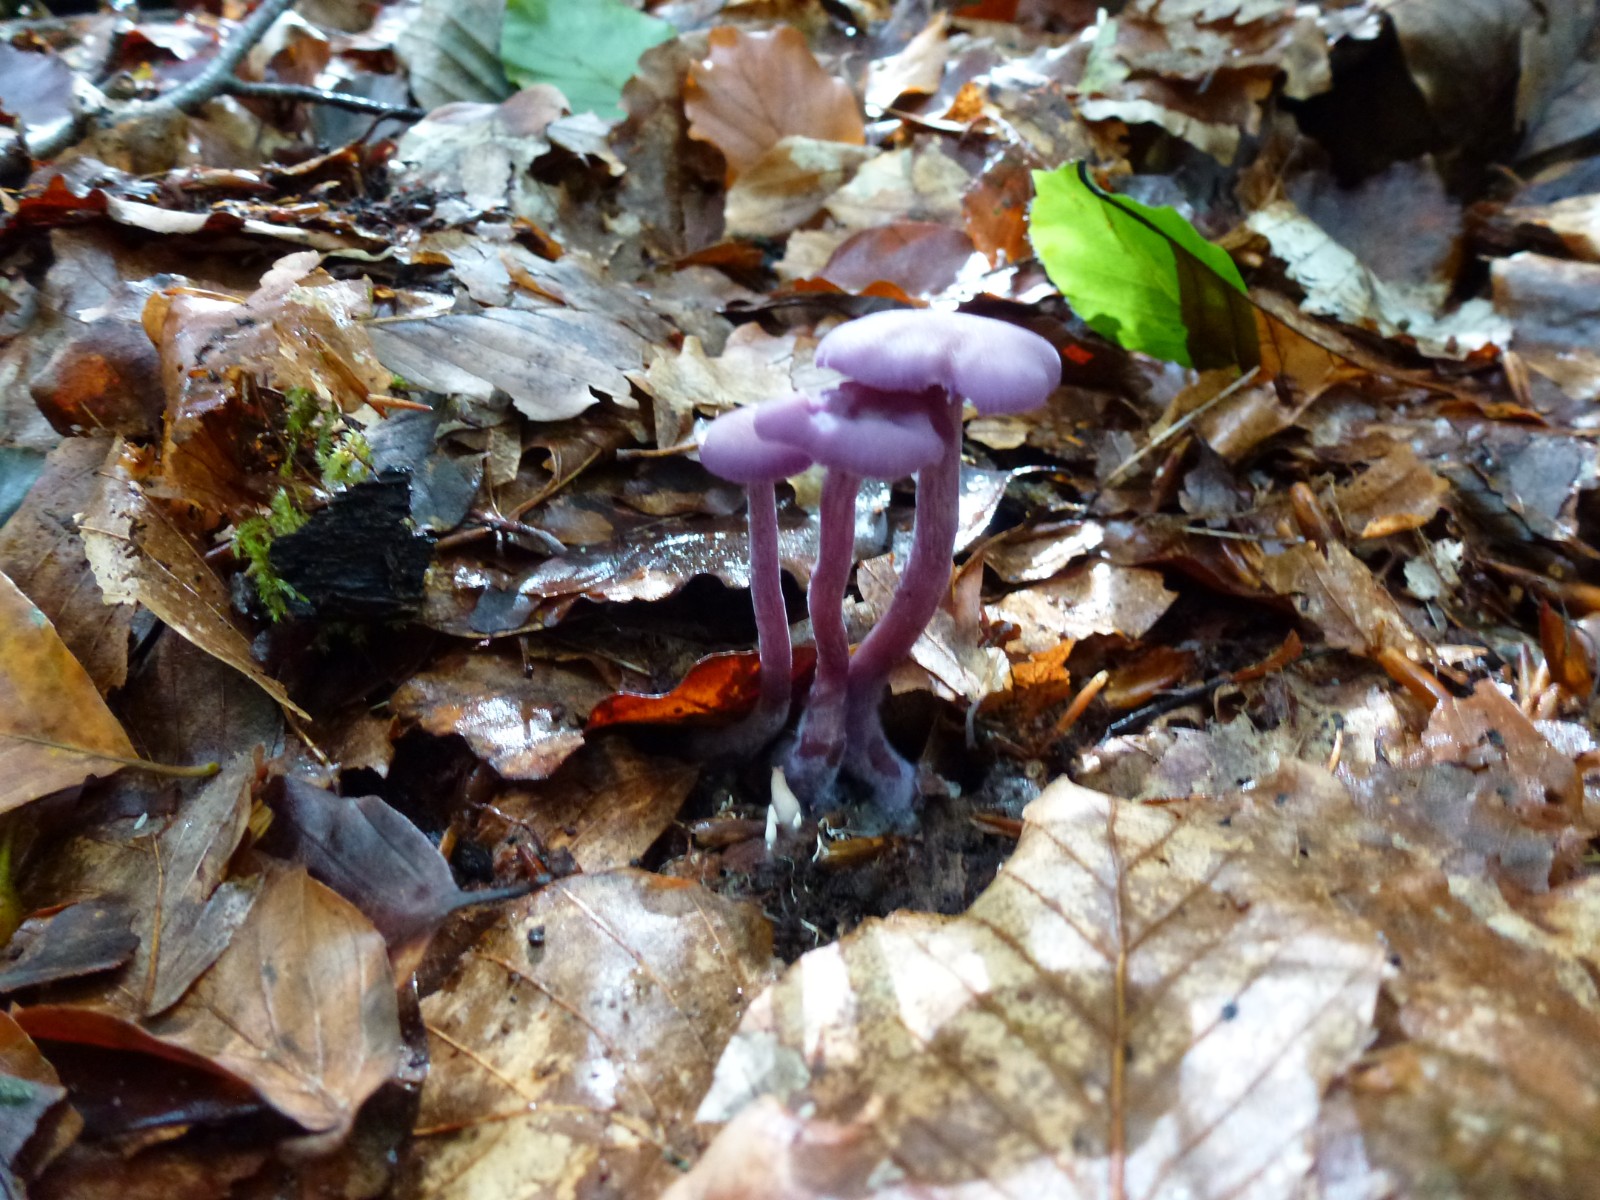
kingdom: Fungi
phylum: Basidiomycota
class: Agaricomycetes
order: Agaricales
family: Hydnangiaceae
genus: Laccaria
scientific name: Laccaria amethystina
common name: violet ametysthat
